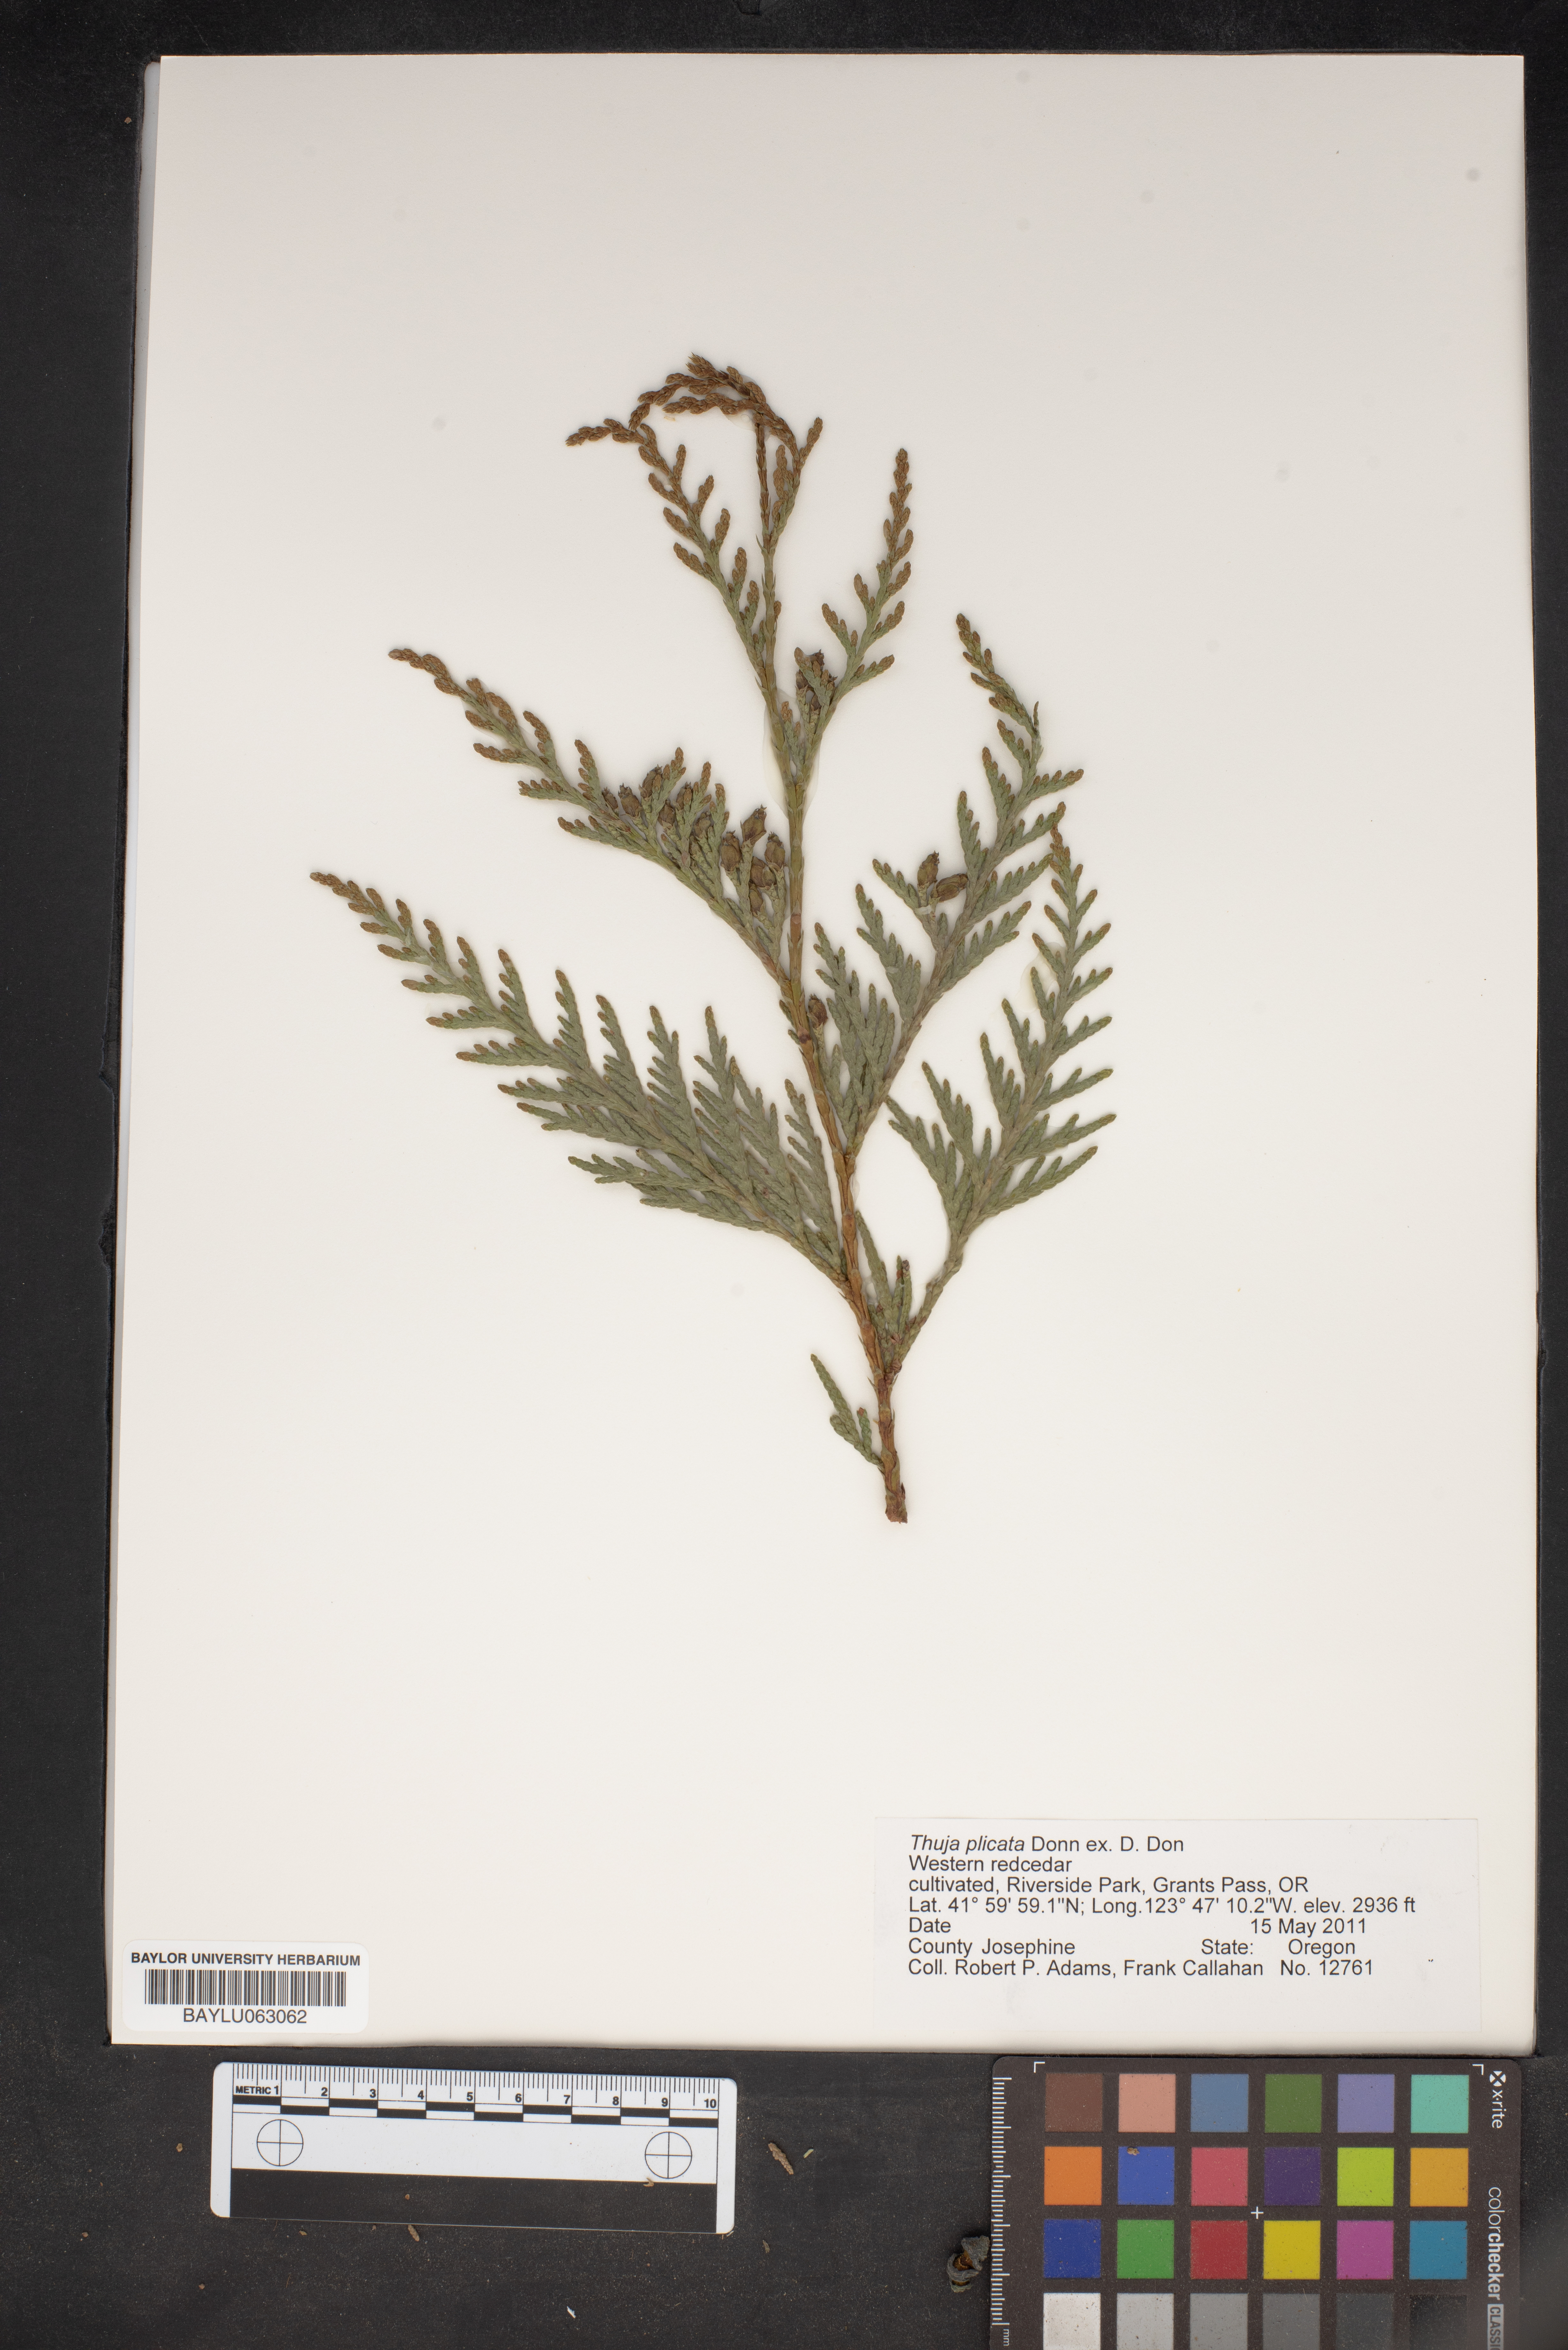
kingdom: Plantae
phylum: Tracheophyta
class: Pinopsida
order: Pinales
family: Cupressaceae
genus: Thuja
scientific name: Thuja plicata
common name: Western red-cedar
